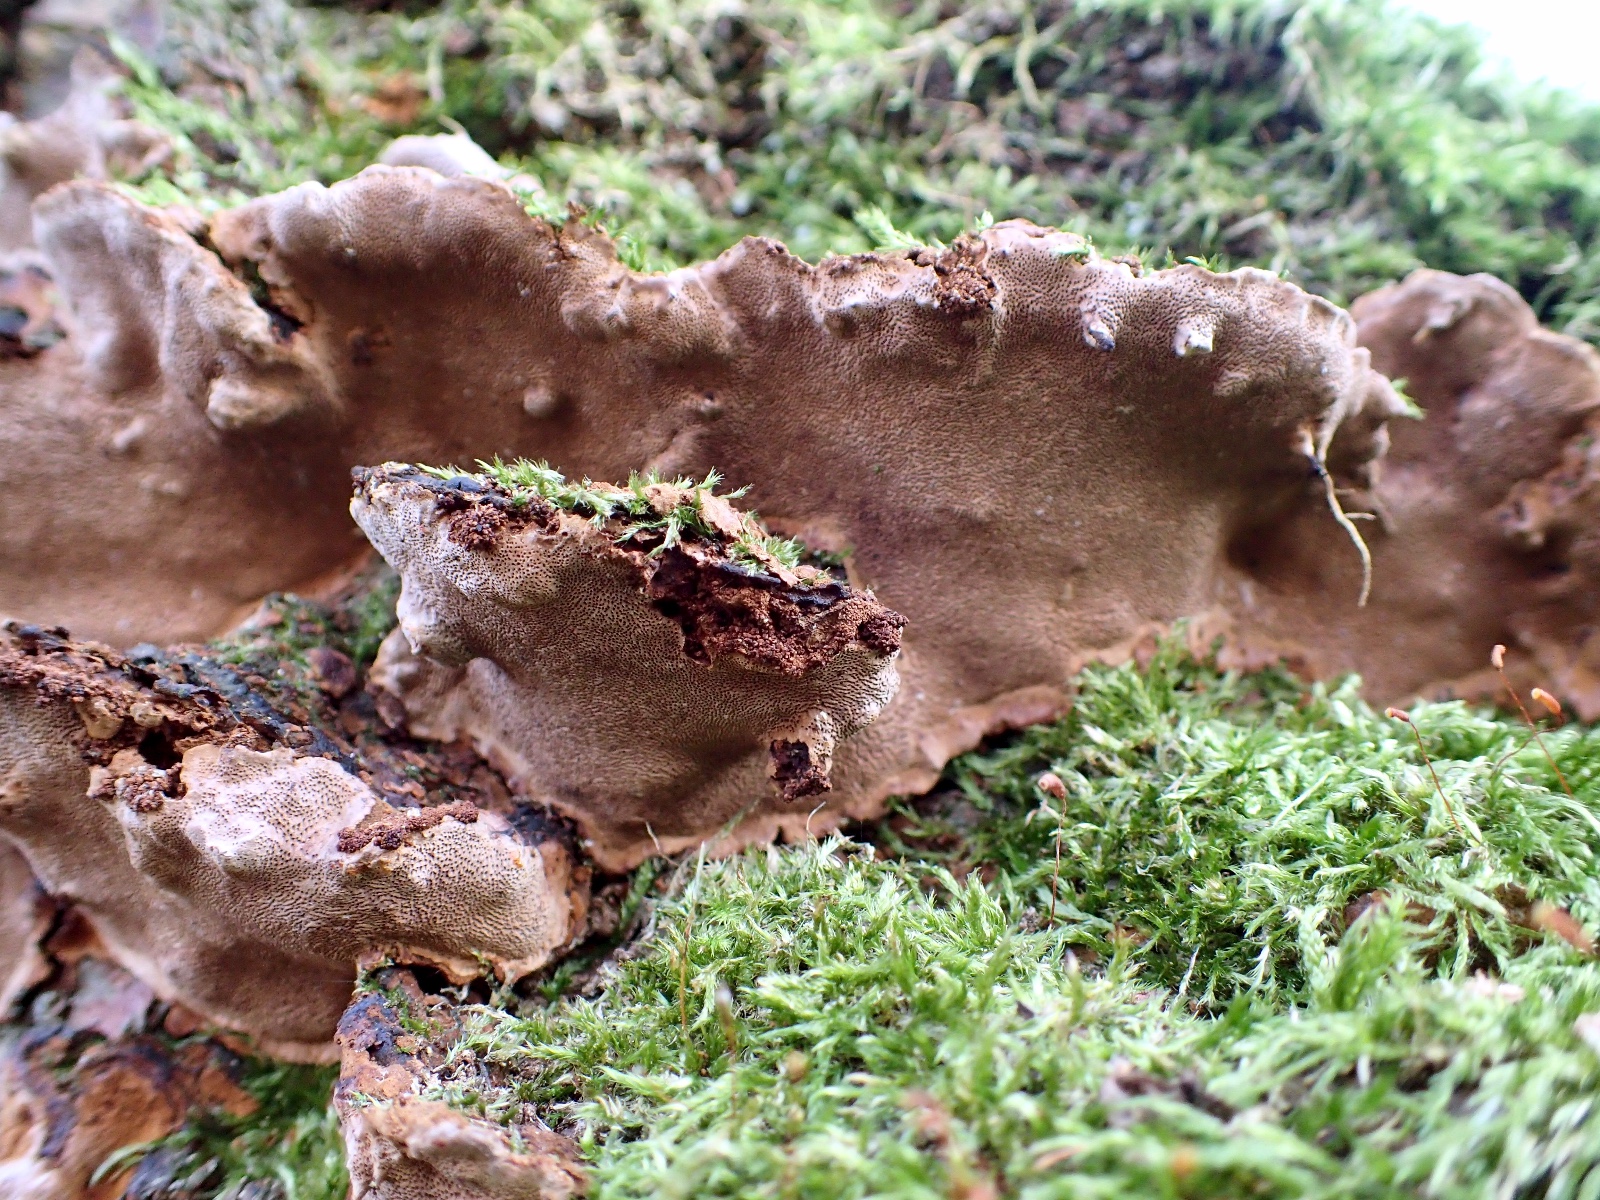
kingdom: Fungi
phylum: Basidiomycota
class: Agaricomycetes
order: Hymenochaetales
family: Hymenochaetaceae
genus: Phellinopsis
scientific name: Phellinopsis conchata
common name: pile-ildporesvamp
